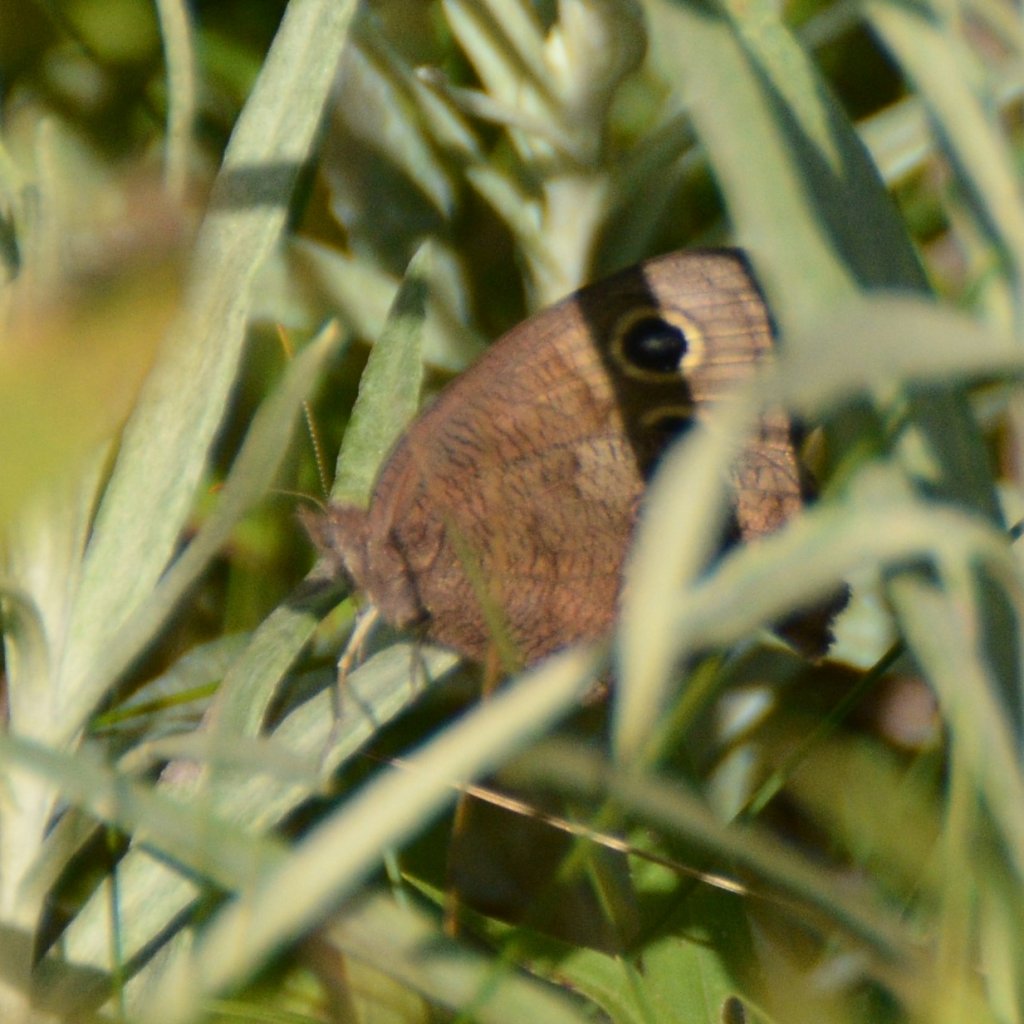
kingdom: Animalia
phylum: Arthropoda
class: Insecta
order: Lepidoptera
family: Nymphalidae
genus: Cercyonis
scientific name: Cercyonis pegala
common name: Common Wood-Nymph
